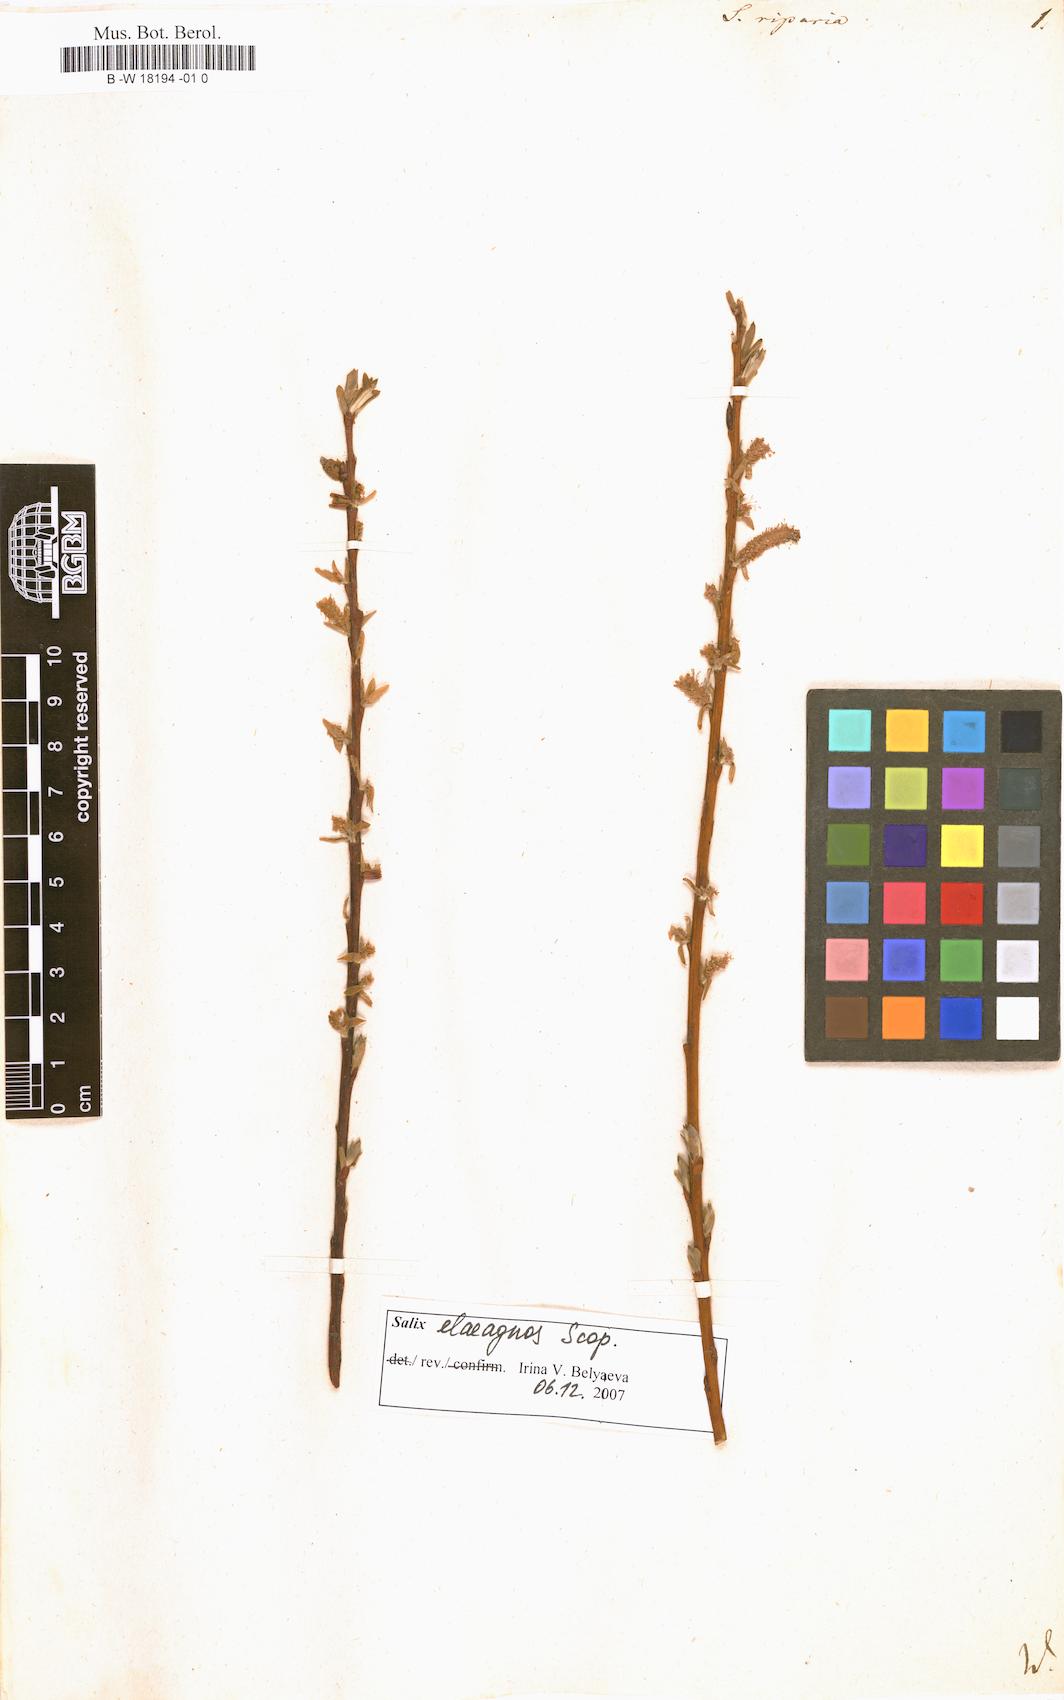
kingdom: Plantae
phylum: Tracheophyta
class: Magnoliopsida
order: Malpighiales
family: Salicaceae
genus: Salix
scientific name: Salix eleagnos
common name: Elaeagnus willow
